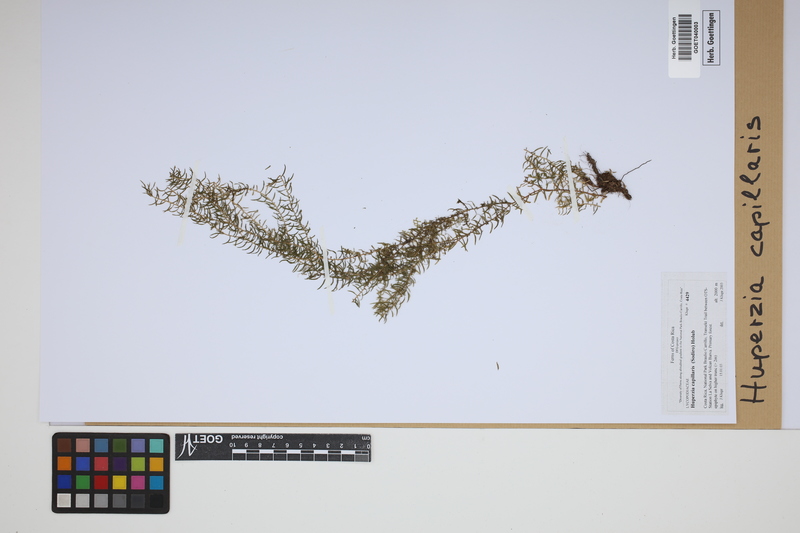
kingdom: Plantae
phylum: Tracheophyta
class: Lycopodiopsida
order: Lycopodiales
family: Lycopodiaceae
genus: Phlegmariurus
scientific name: Phlegmariurus capillaris
